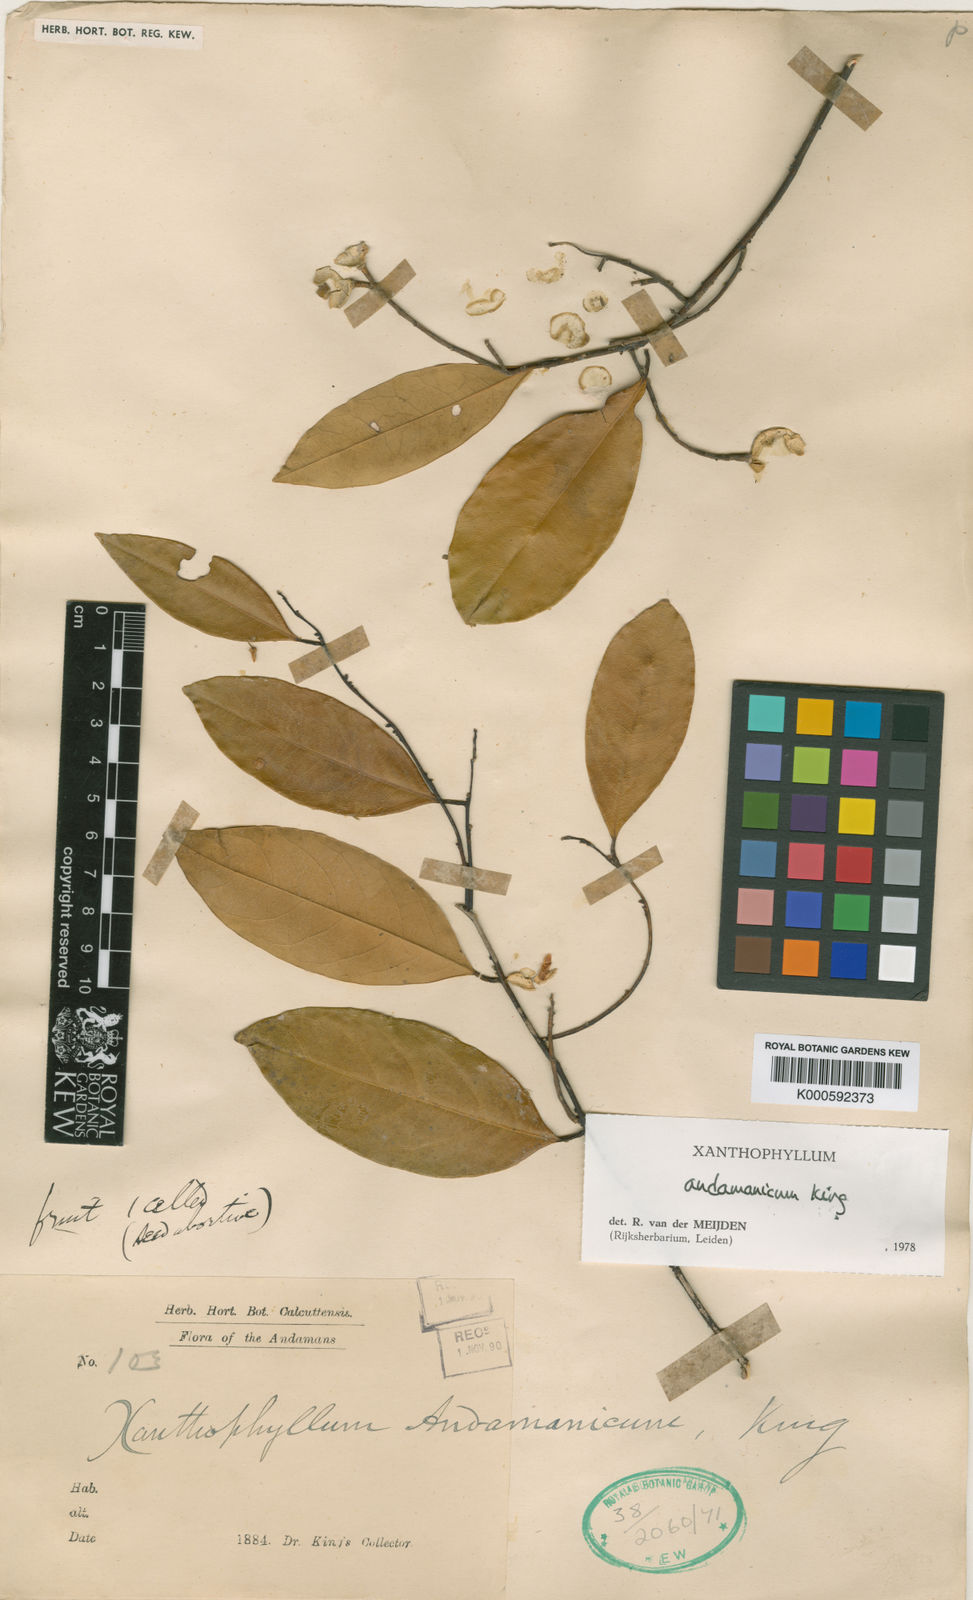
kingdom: Plantae
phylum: Tracheophyta
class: Magnoliopsida
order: Fabales
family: Polygalaceae
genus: Xanthophyllum
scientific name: Xanthophyllum andamanicum
